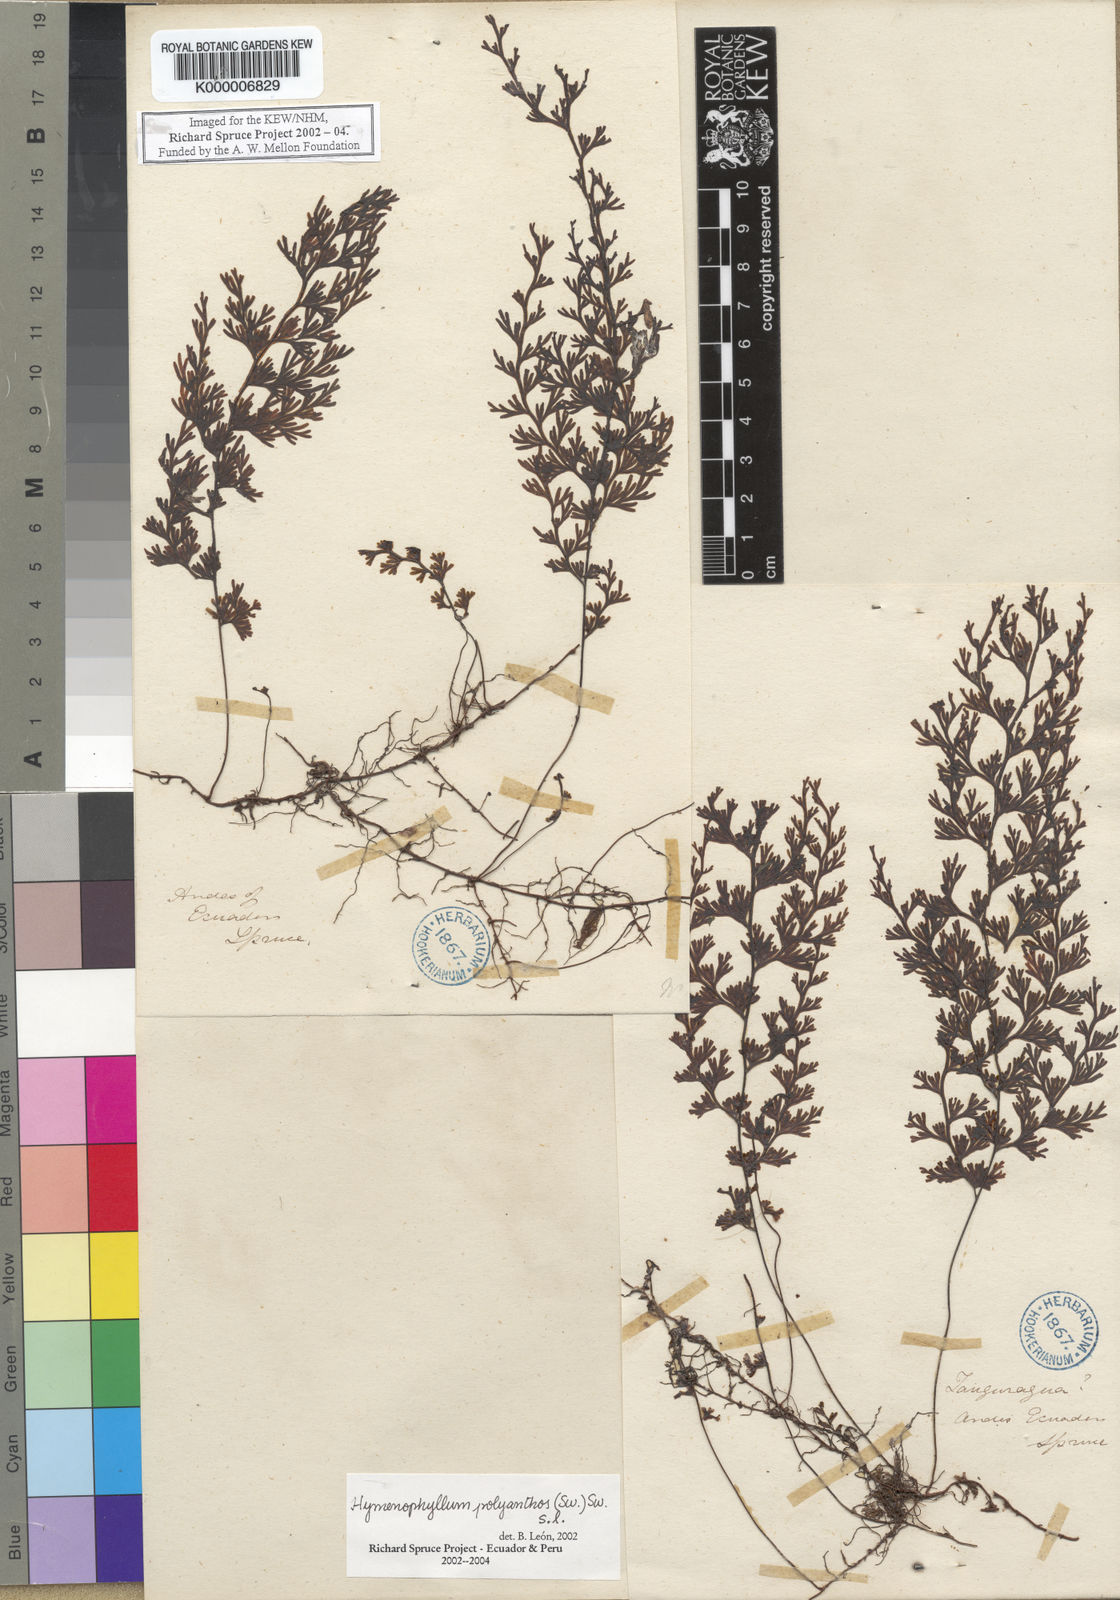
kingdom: Plantae
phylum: Tracheophyta
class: Polypodiopsida
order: Hymenophyllales
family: Hymenophyllaceae
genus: Hymenophyllum
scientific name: Hymenophyllum polyanthos
